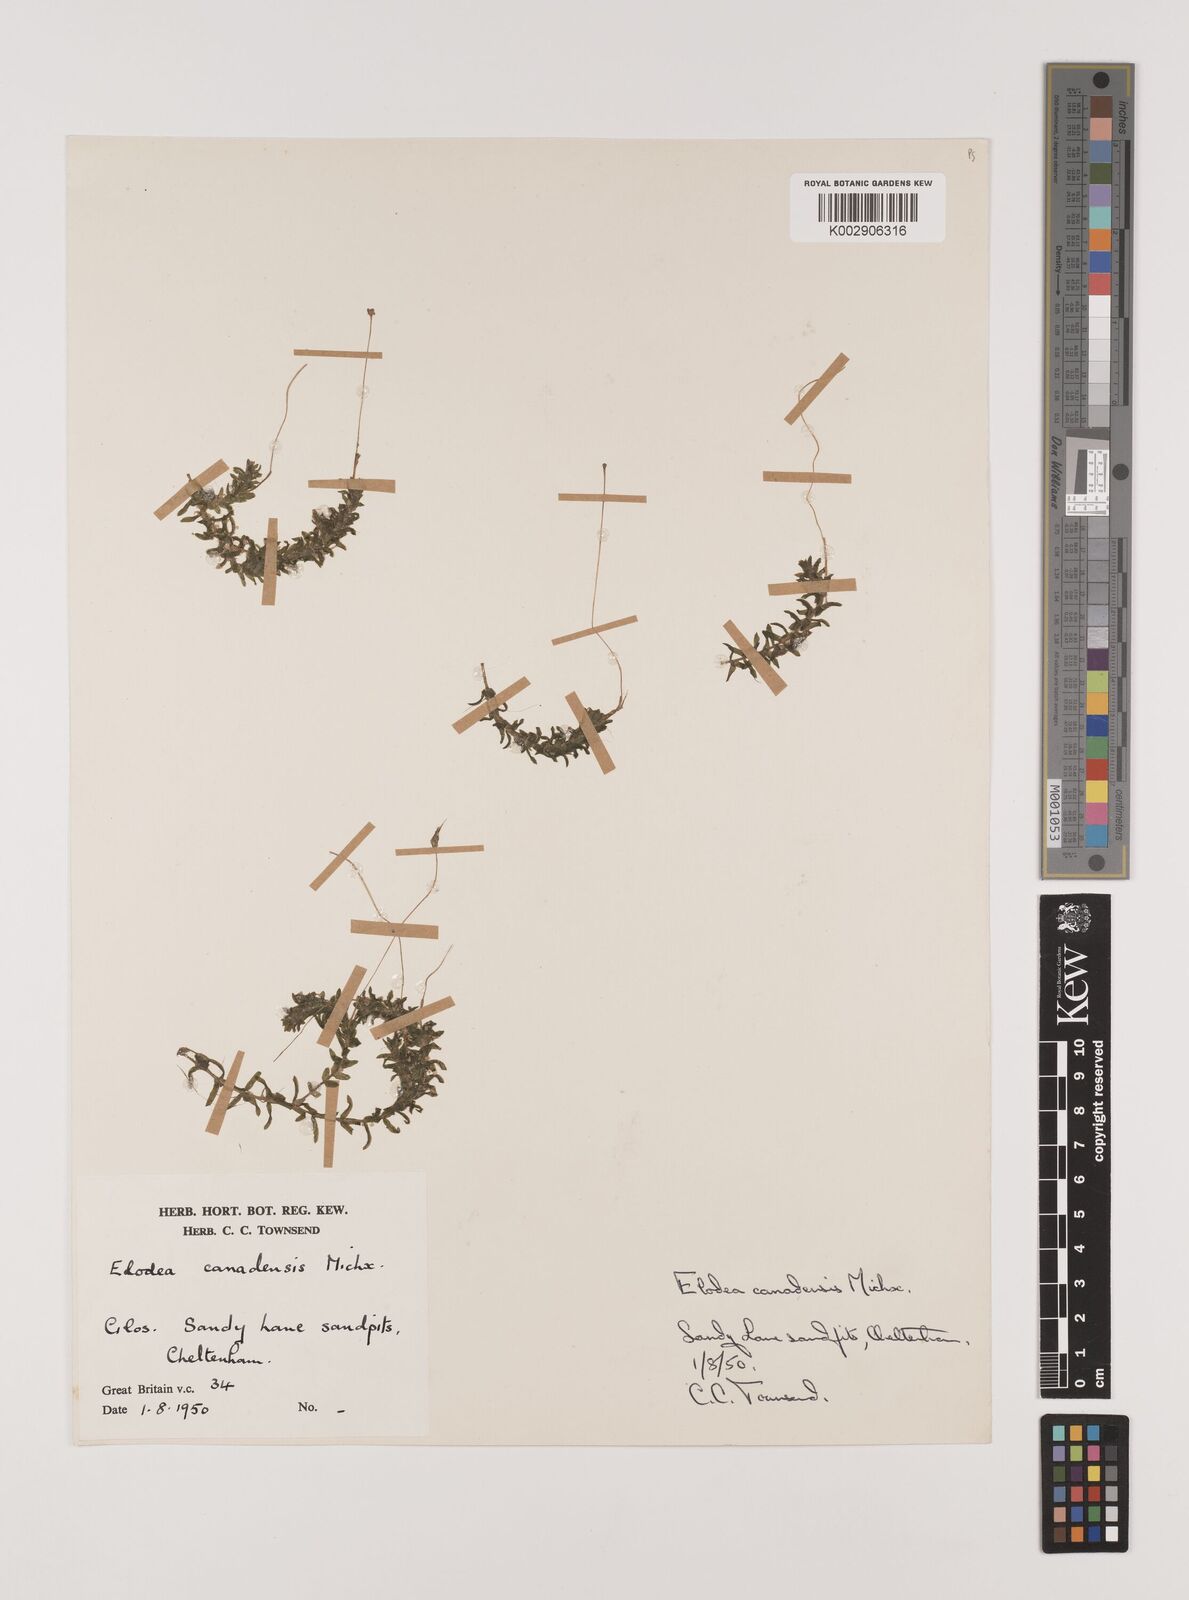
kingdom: Plantae
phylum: Tracheophyta
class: Liliopsida
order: Alismatales
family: Hydrocharitaceae
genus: Elodea
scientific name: Elodea canadensis
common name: Canadian waterweed
